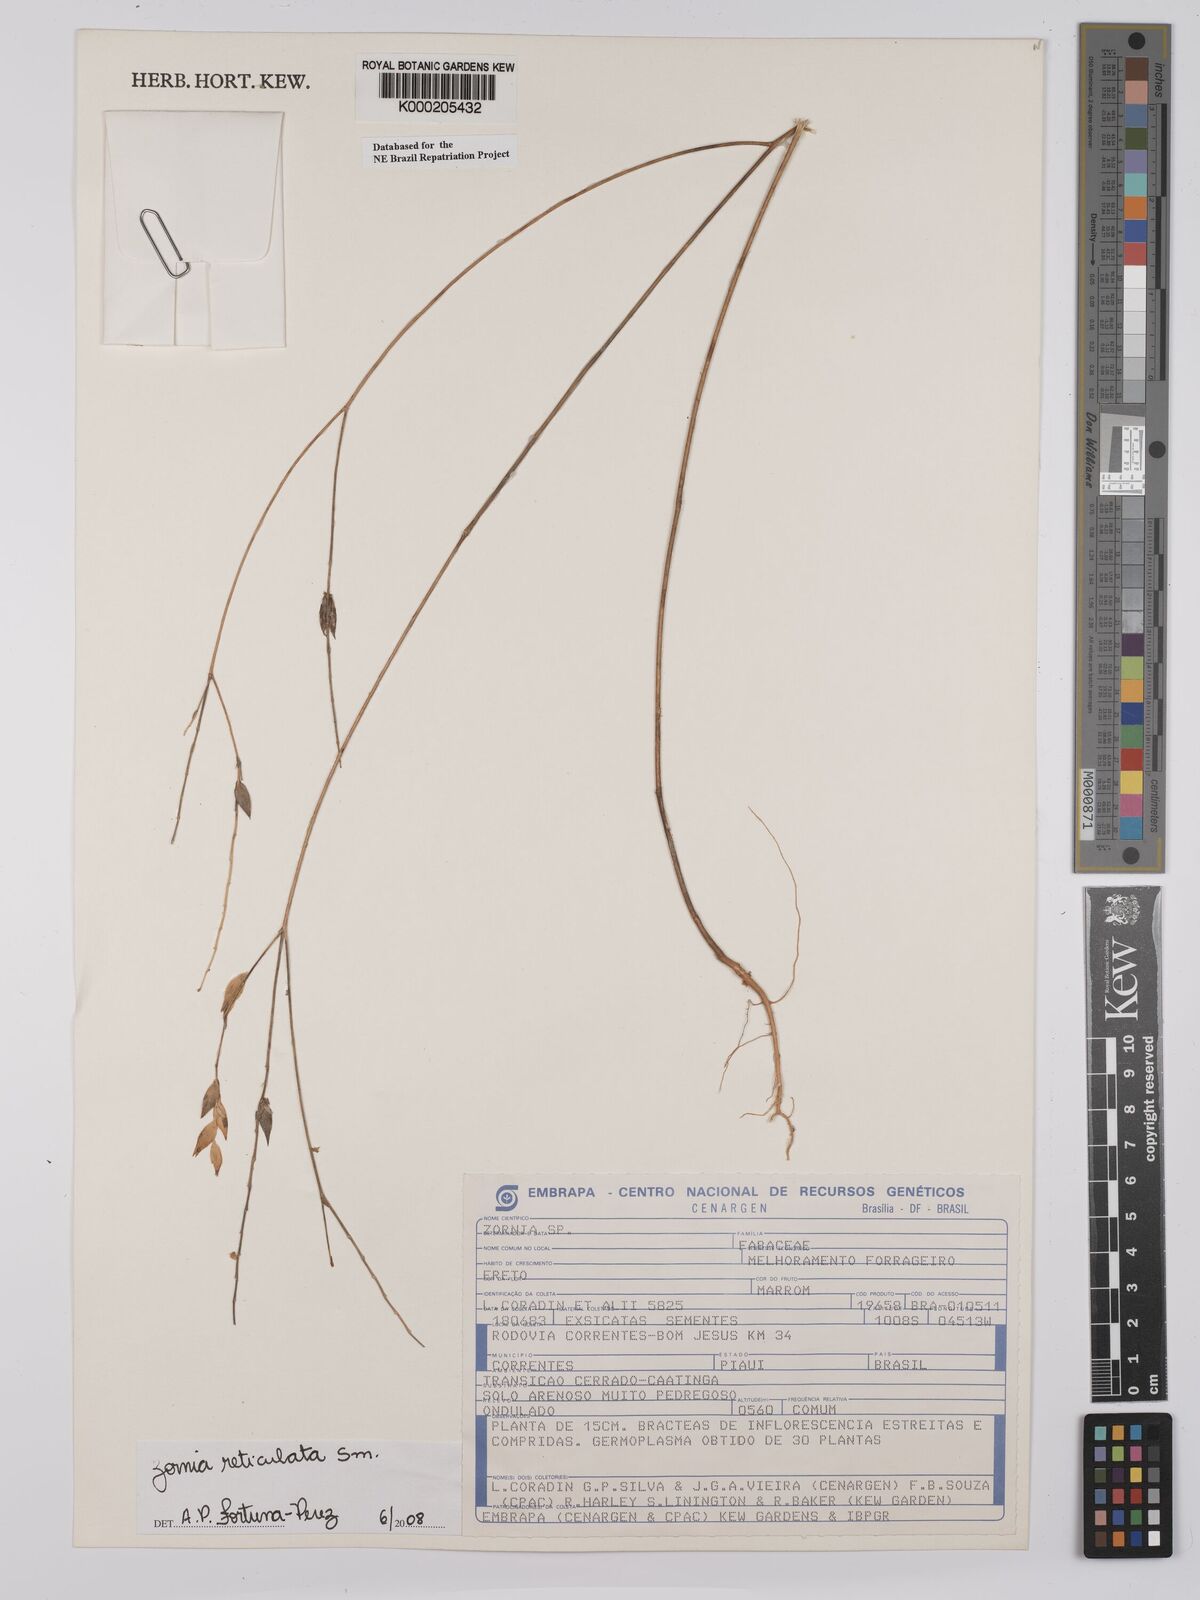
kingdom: Plantae
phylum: Tracheophyta
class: Magnoliopsida
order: Fabales
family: Fabaceae
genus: Zornia
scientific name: Zornia reticulata
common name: Reticulate viperina
